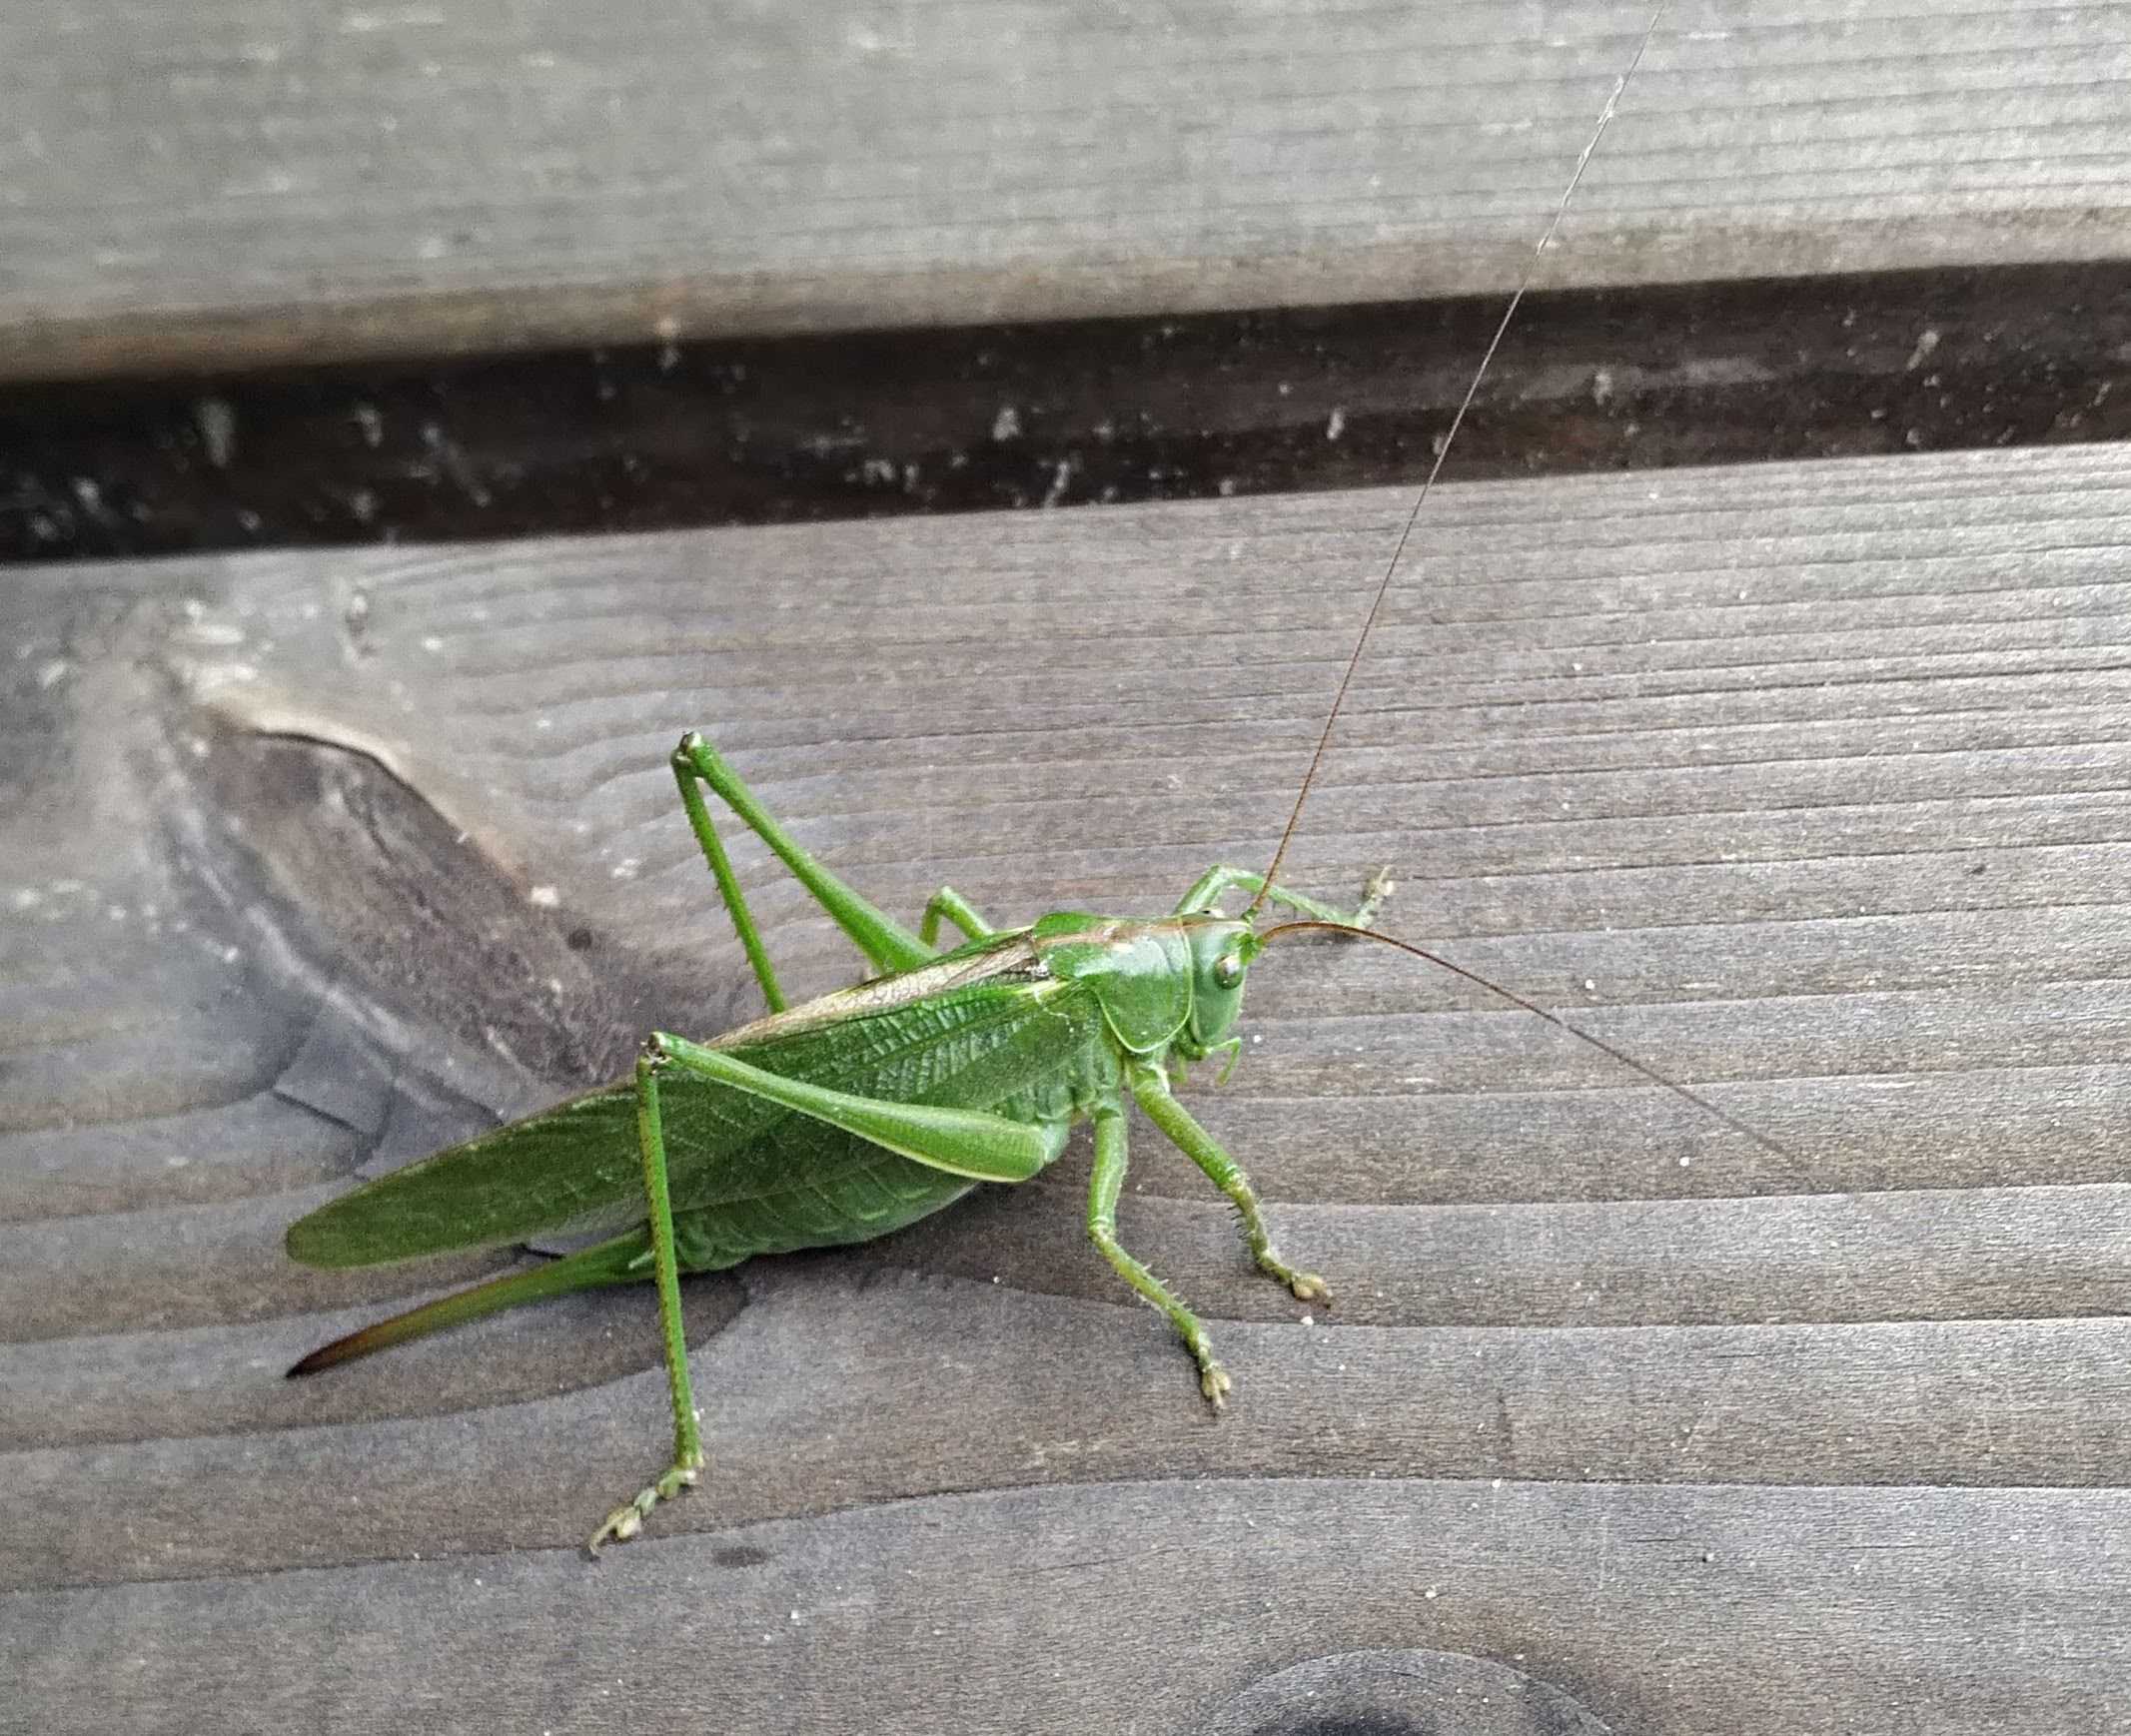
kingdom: Animalia
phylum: Arthropoda
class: Insecta
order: Orthoptera
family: Tettigoniidae
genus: Tettigonia
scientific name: Tettigonia viridissima
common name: Stor grøn løvgræshoppe
